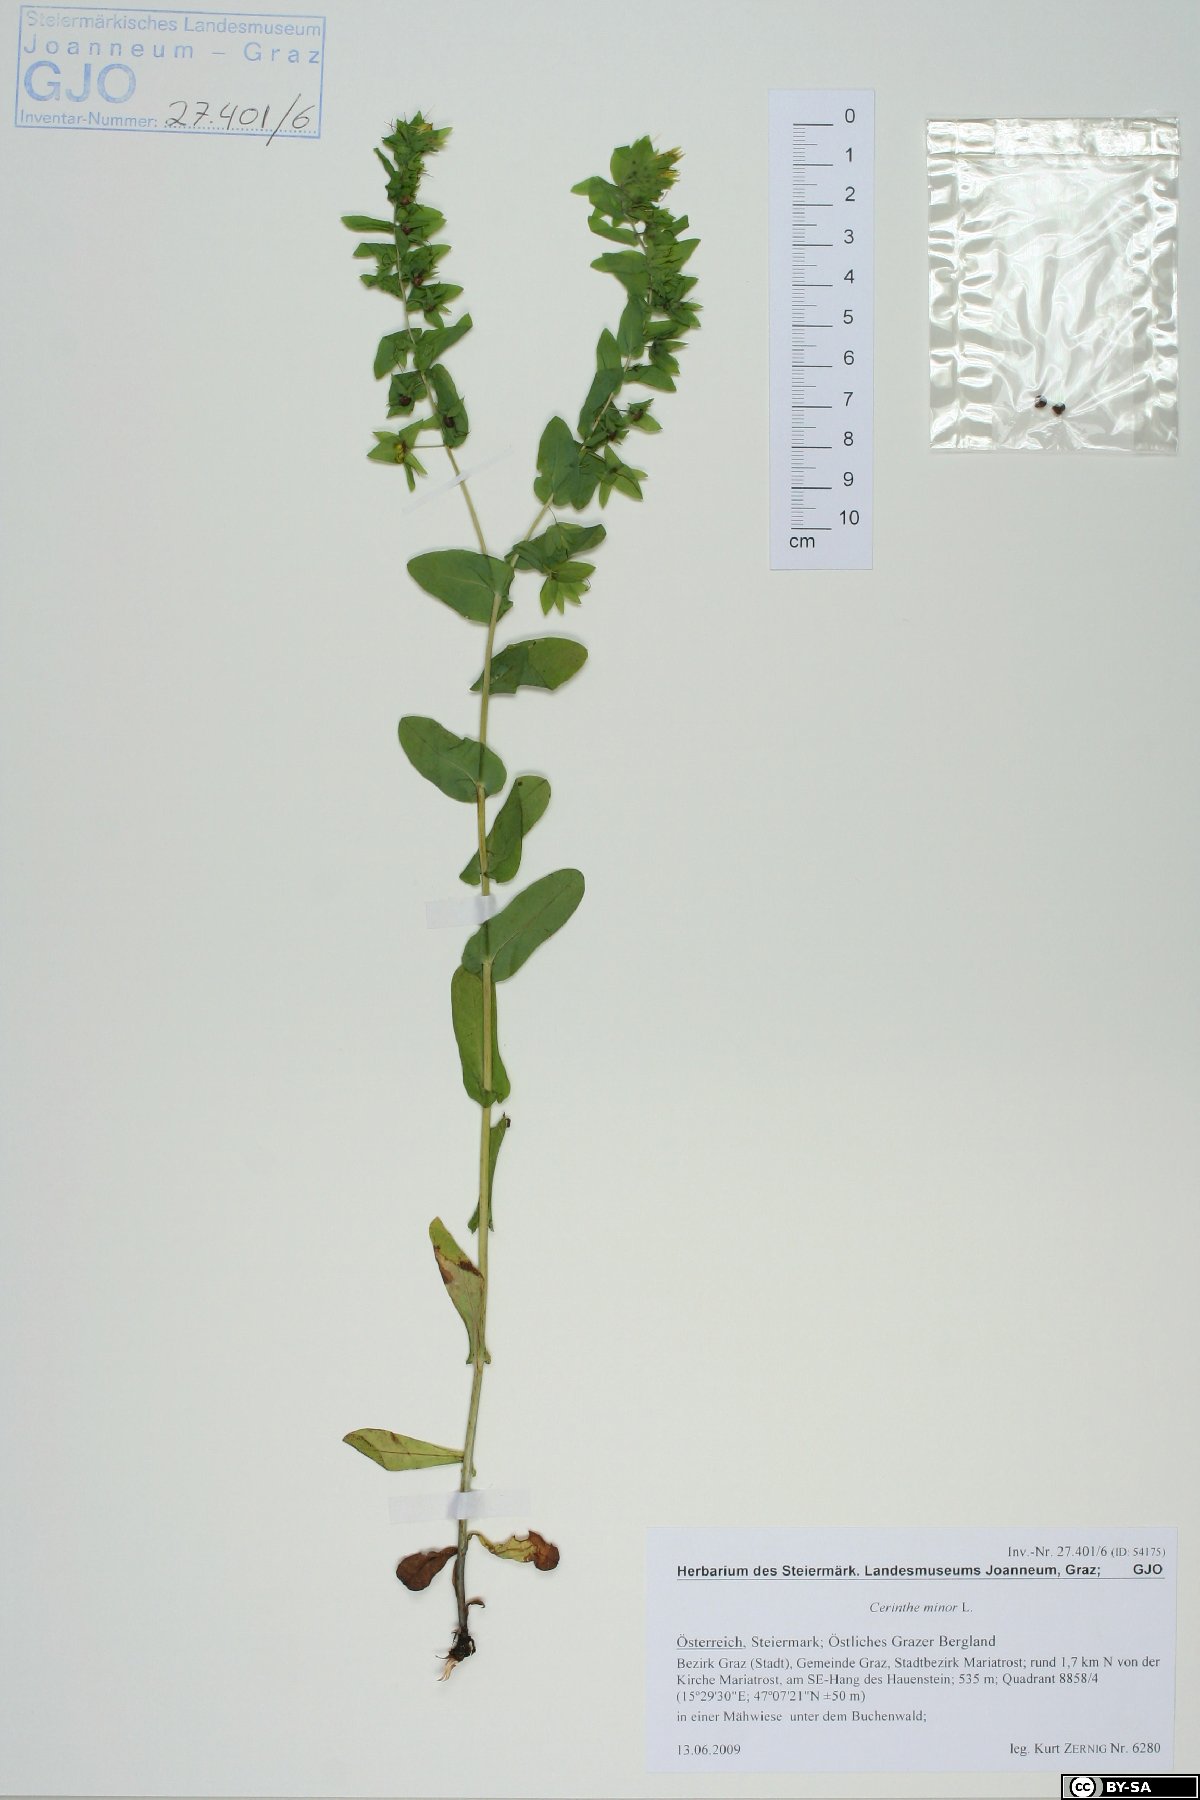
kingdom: Plantae
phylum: Tracheophyta
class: Magnoliopsida
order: Boraginales
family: Boraginaceae
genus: Cerinthe
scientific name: Cerinthe minor
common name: Lesser honeywort
